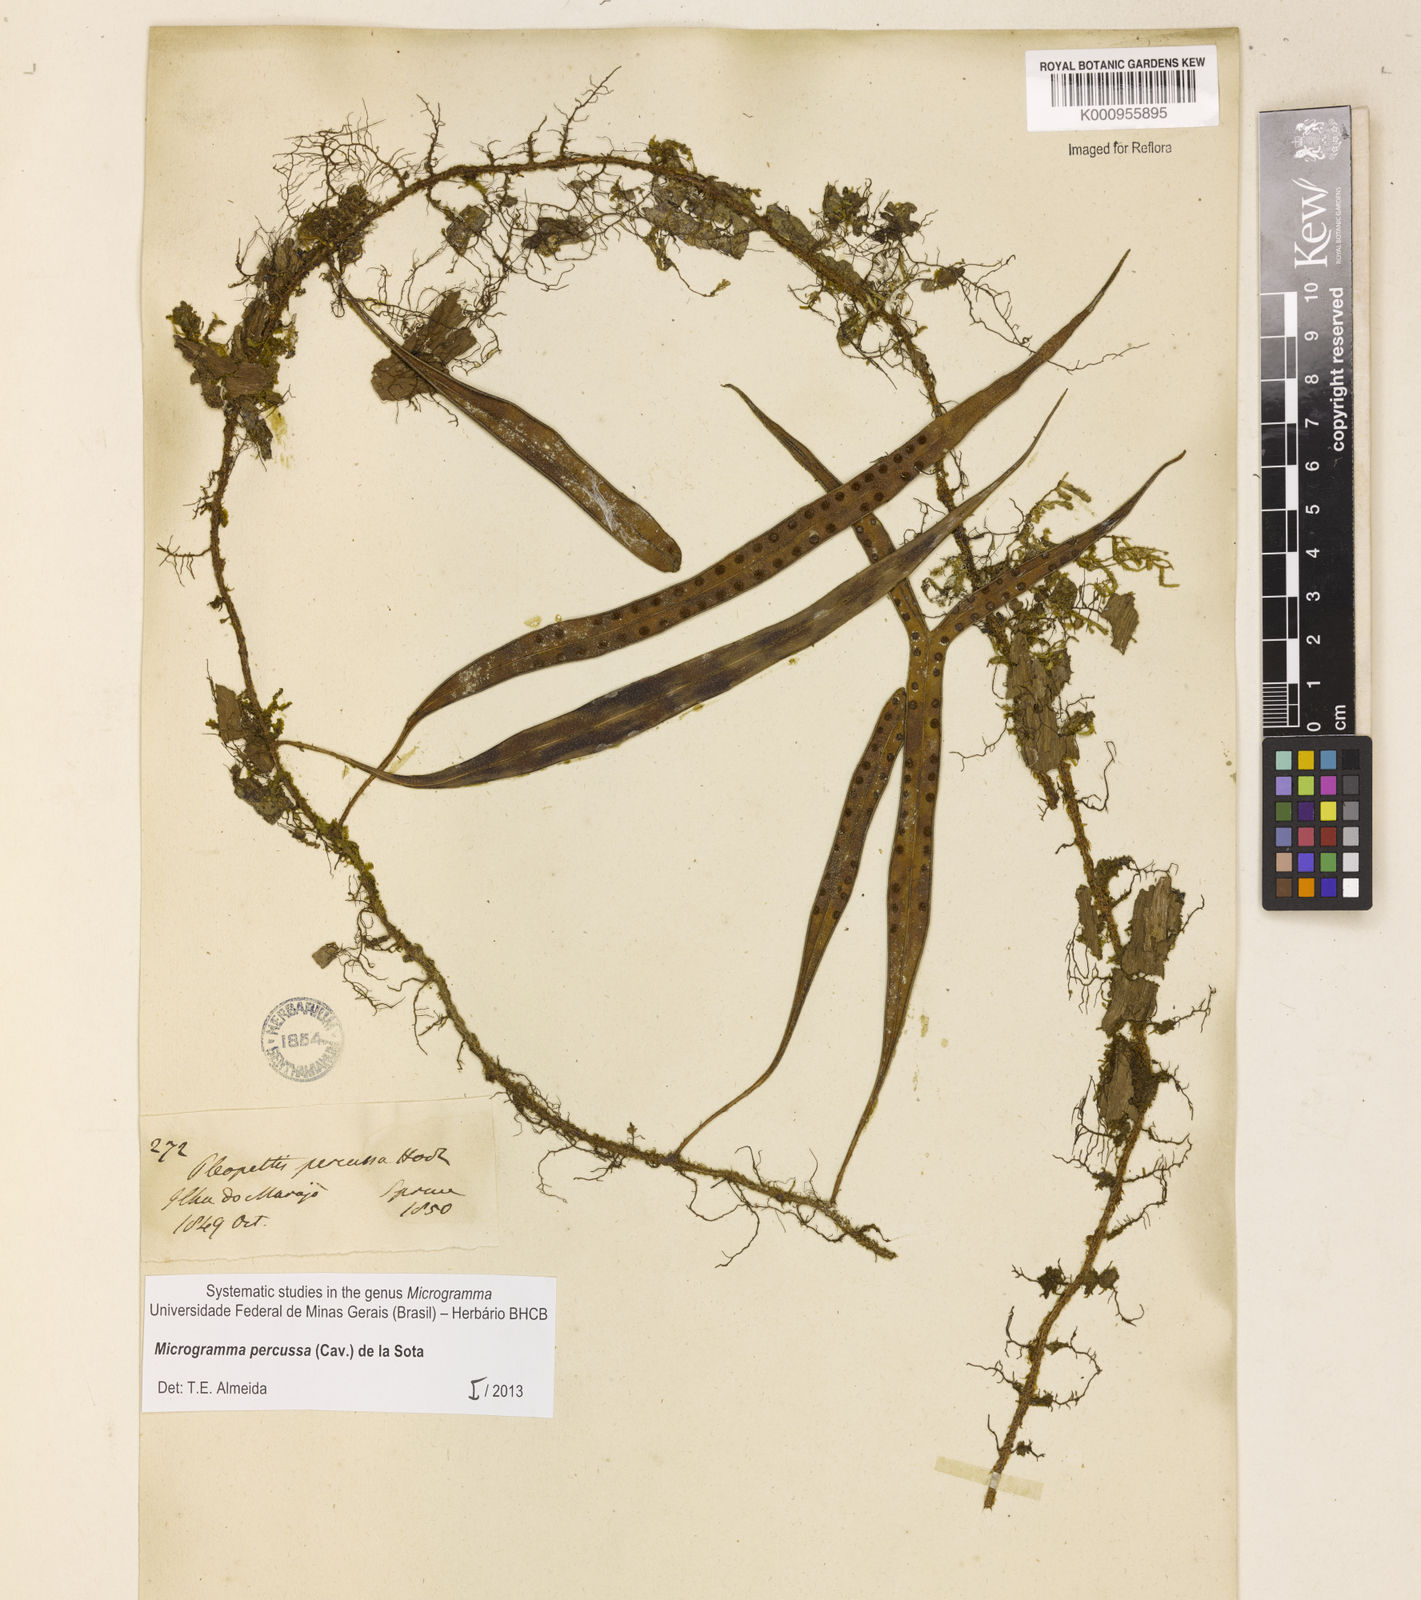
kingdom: Plantae
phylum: Tracheophyta
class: Polypodiopsida
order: Polypodiales
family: Polypodiaceae
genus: Microgramma
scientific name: Microgramma percussa
